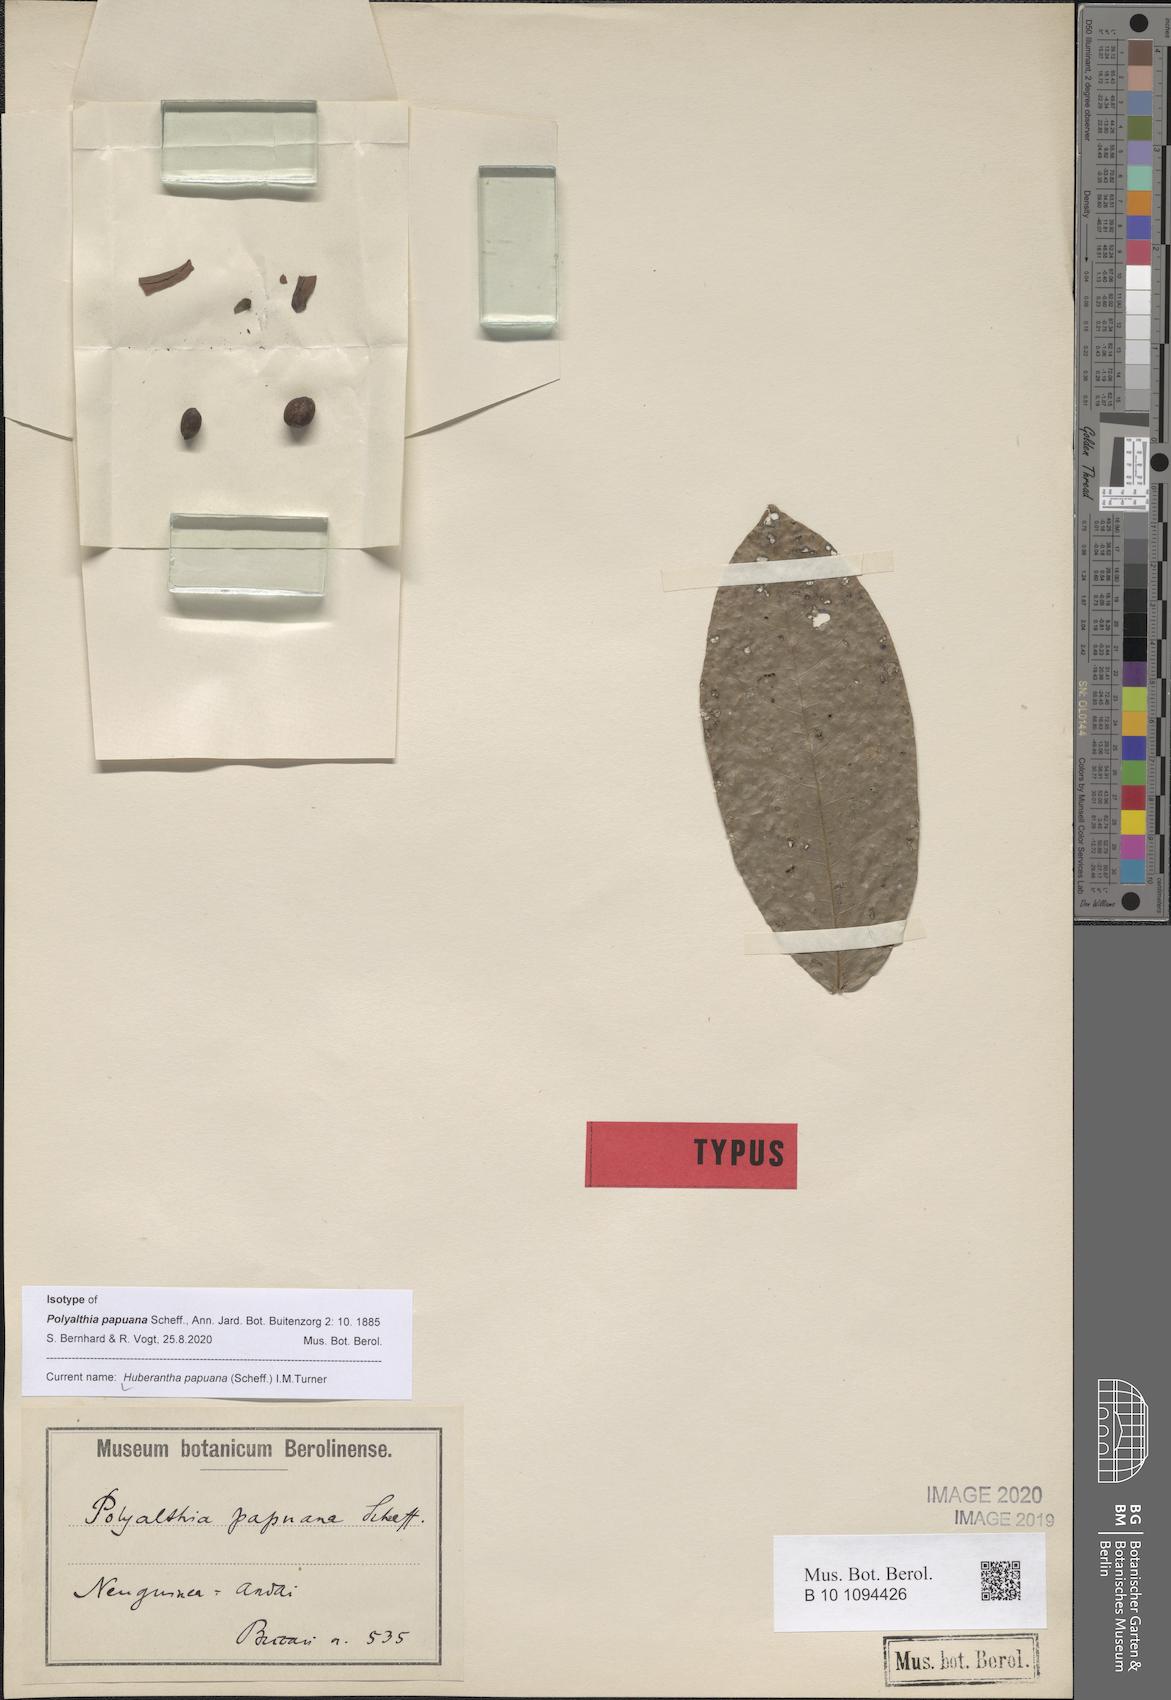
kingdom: Plantae
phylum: Tracheophyta
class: Magnoliopsida
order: Magnoliales
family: Annonaceae
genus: Polyalthia
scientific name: Polyalthia papuana
